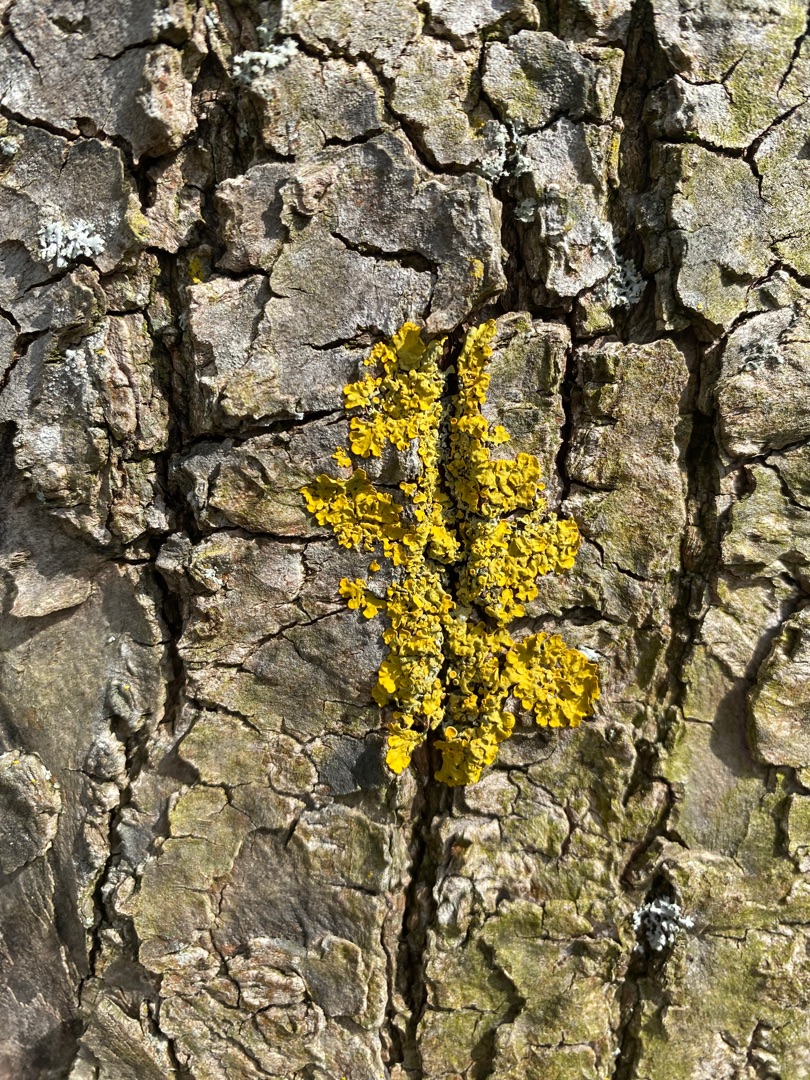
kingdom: Fungi
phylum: Ascomycota
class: Lecanoromycetes
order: Teloschistales
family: Teloschistaceae
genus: Xanthoria
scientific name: Xanthoria parietina
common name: Almindelig væggelav
